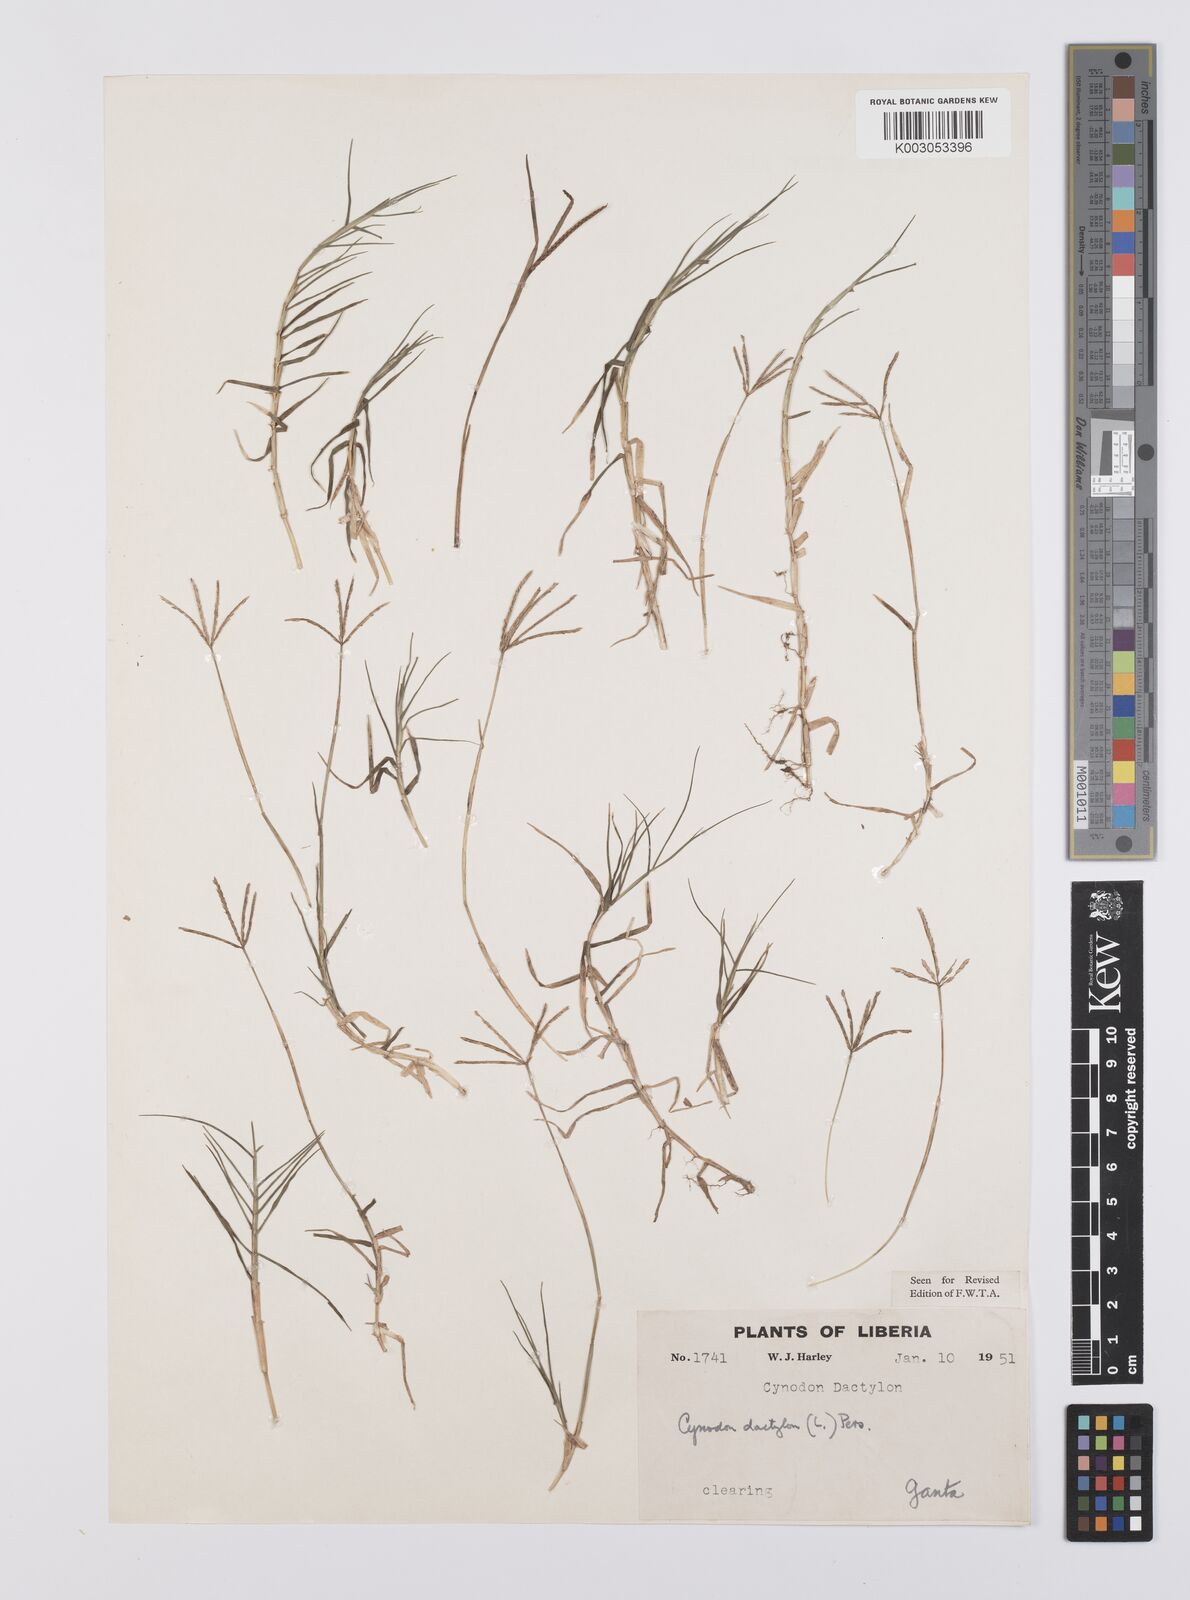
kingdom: Plantae
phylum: Tracheophyta
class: Liliopsida
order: Poales
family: Poaceae
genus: Cynodon
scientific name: Cynodon dactylon
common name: Bermuda grass
